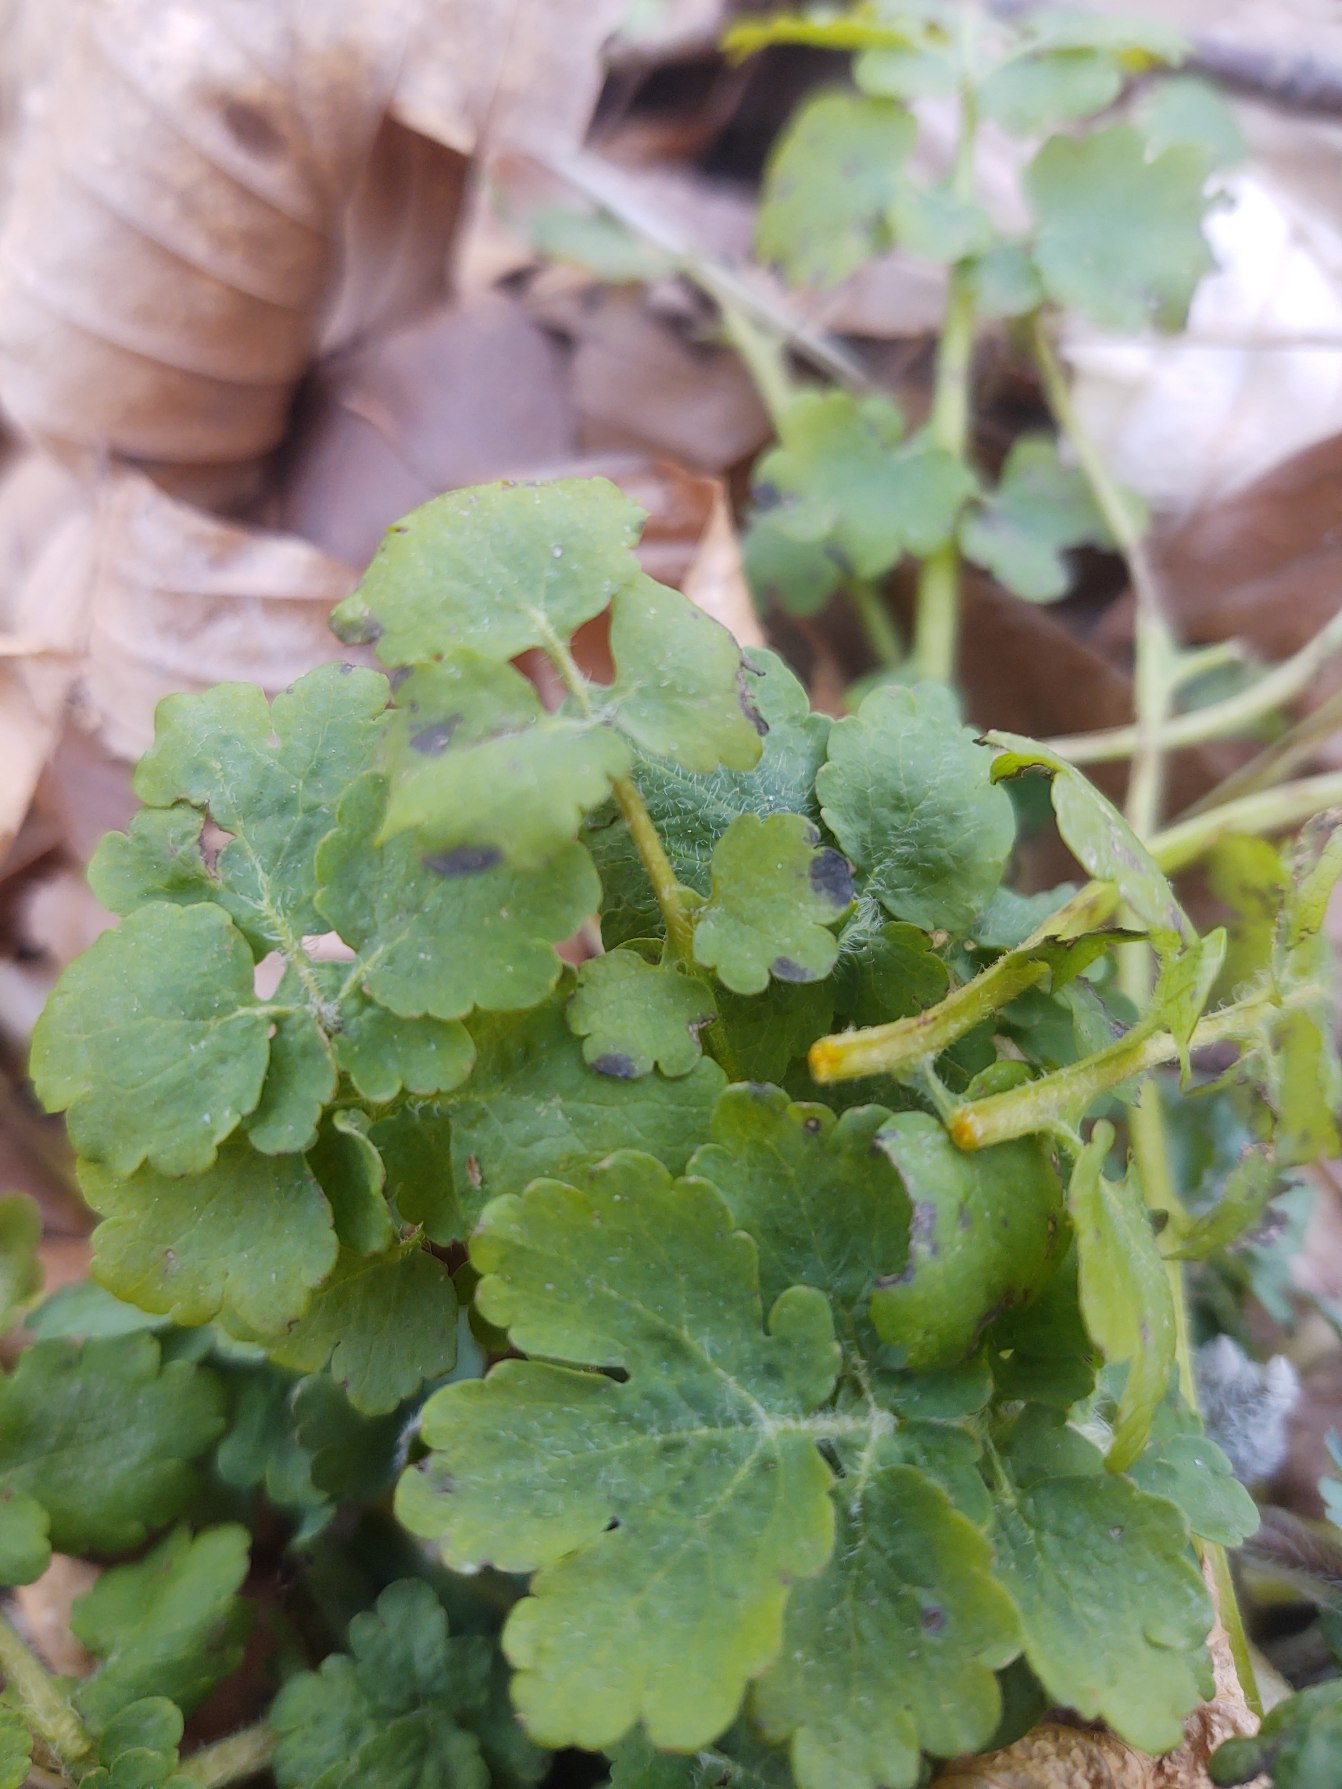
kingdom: Plantae
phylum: Tracheophyta
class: Magnoliopsida
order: Ranunculales
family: Papaveraceae
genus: Chelidonium
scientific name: Chelidonium majus
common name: Svaleurt
